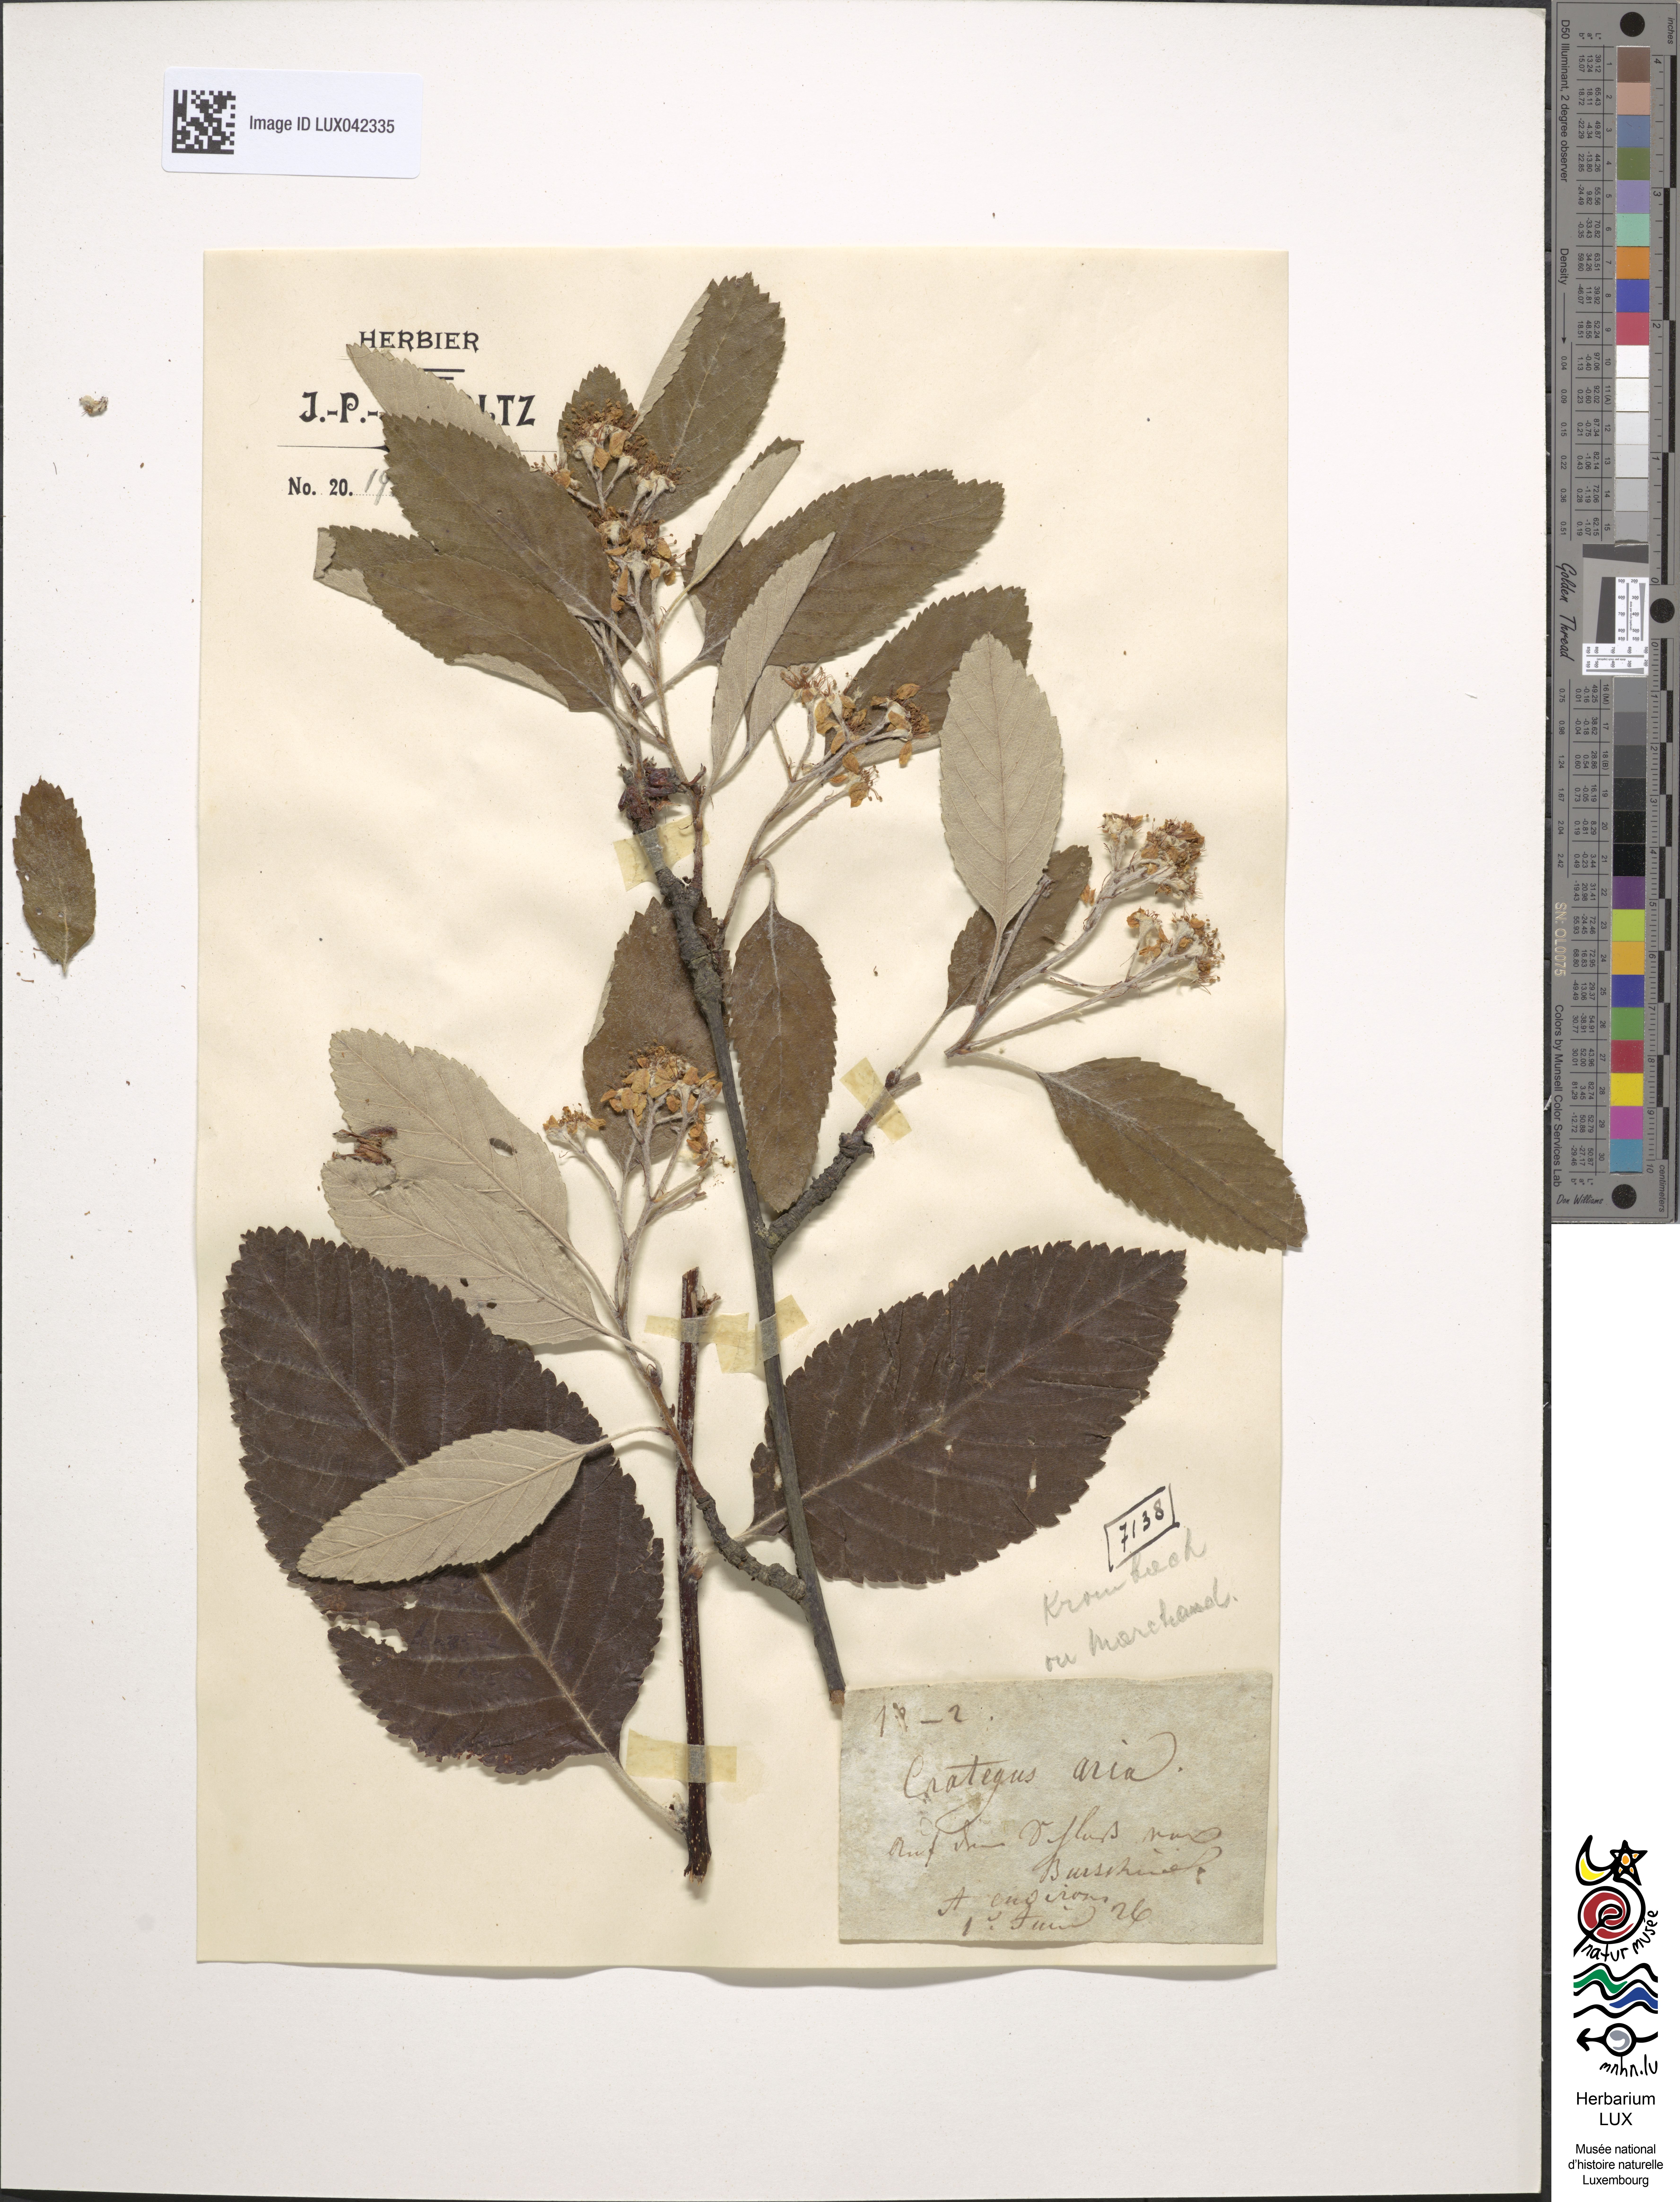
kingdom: Plantae
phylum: Tracheophyta
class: Magnoliopsida
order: Rosales
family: Rosaceae
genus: Aria
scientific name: Aria edulis
